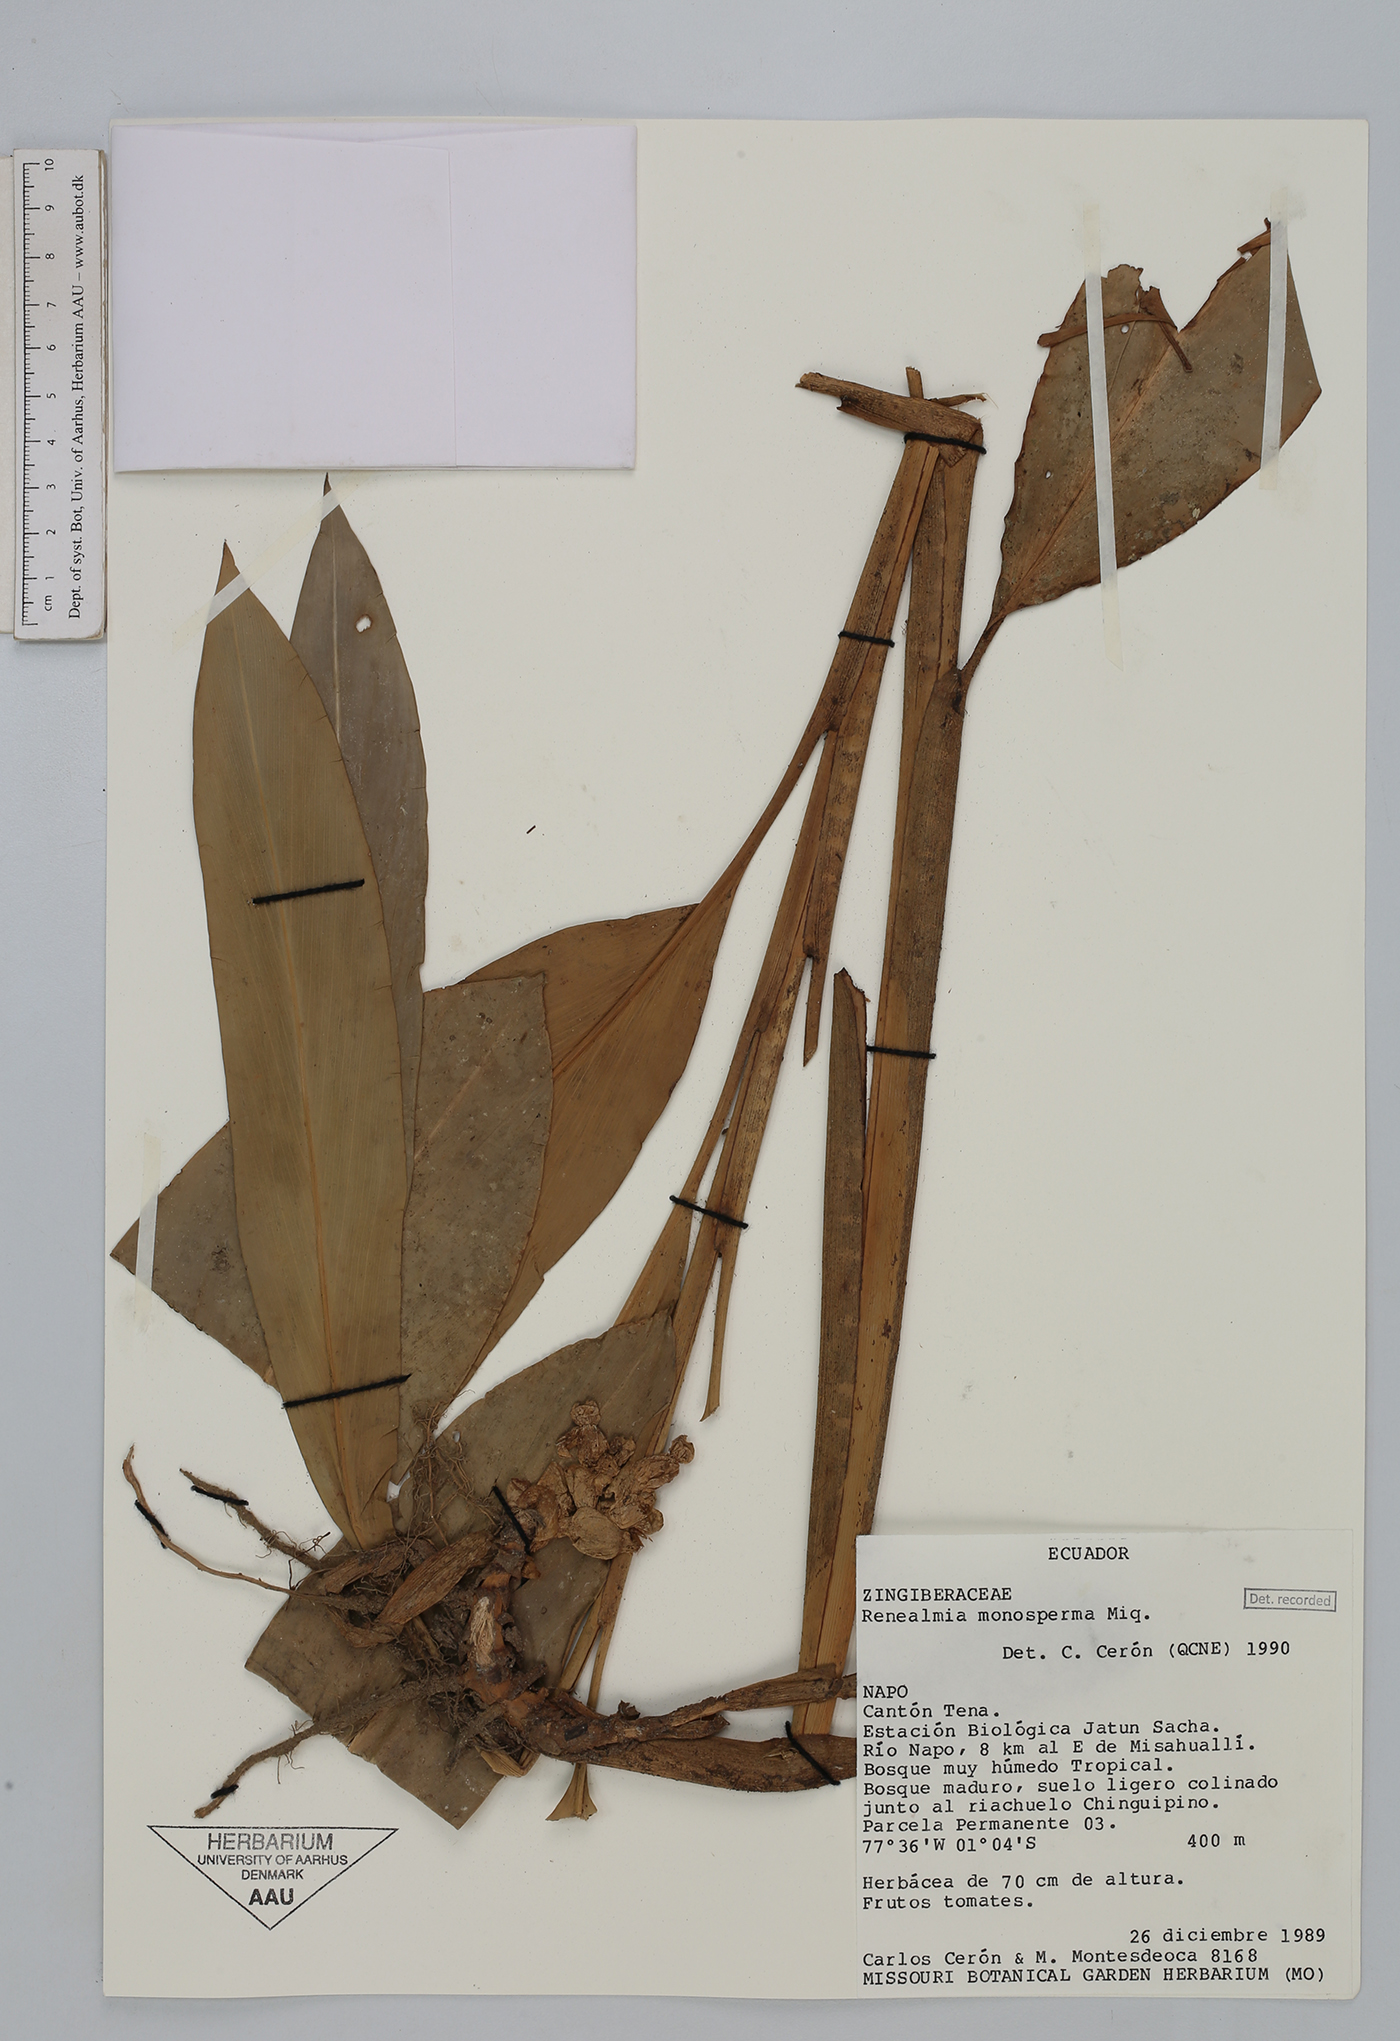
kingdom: Plantae
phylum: Tracheophyta
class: Liliopsida
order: Zingiberales
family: Zingiberaceae
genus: Renealmia
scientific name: Renealmia monosperma
